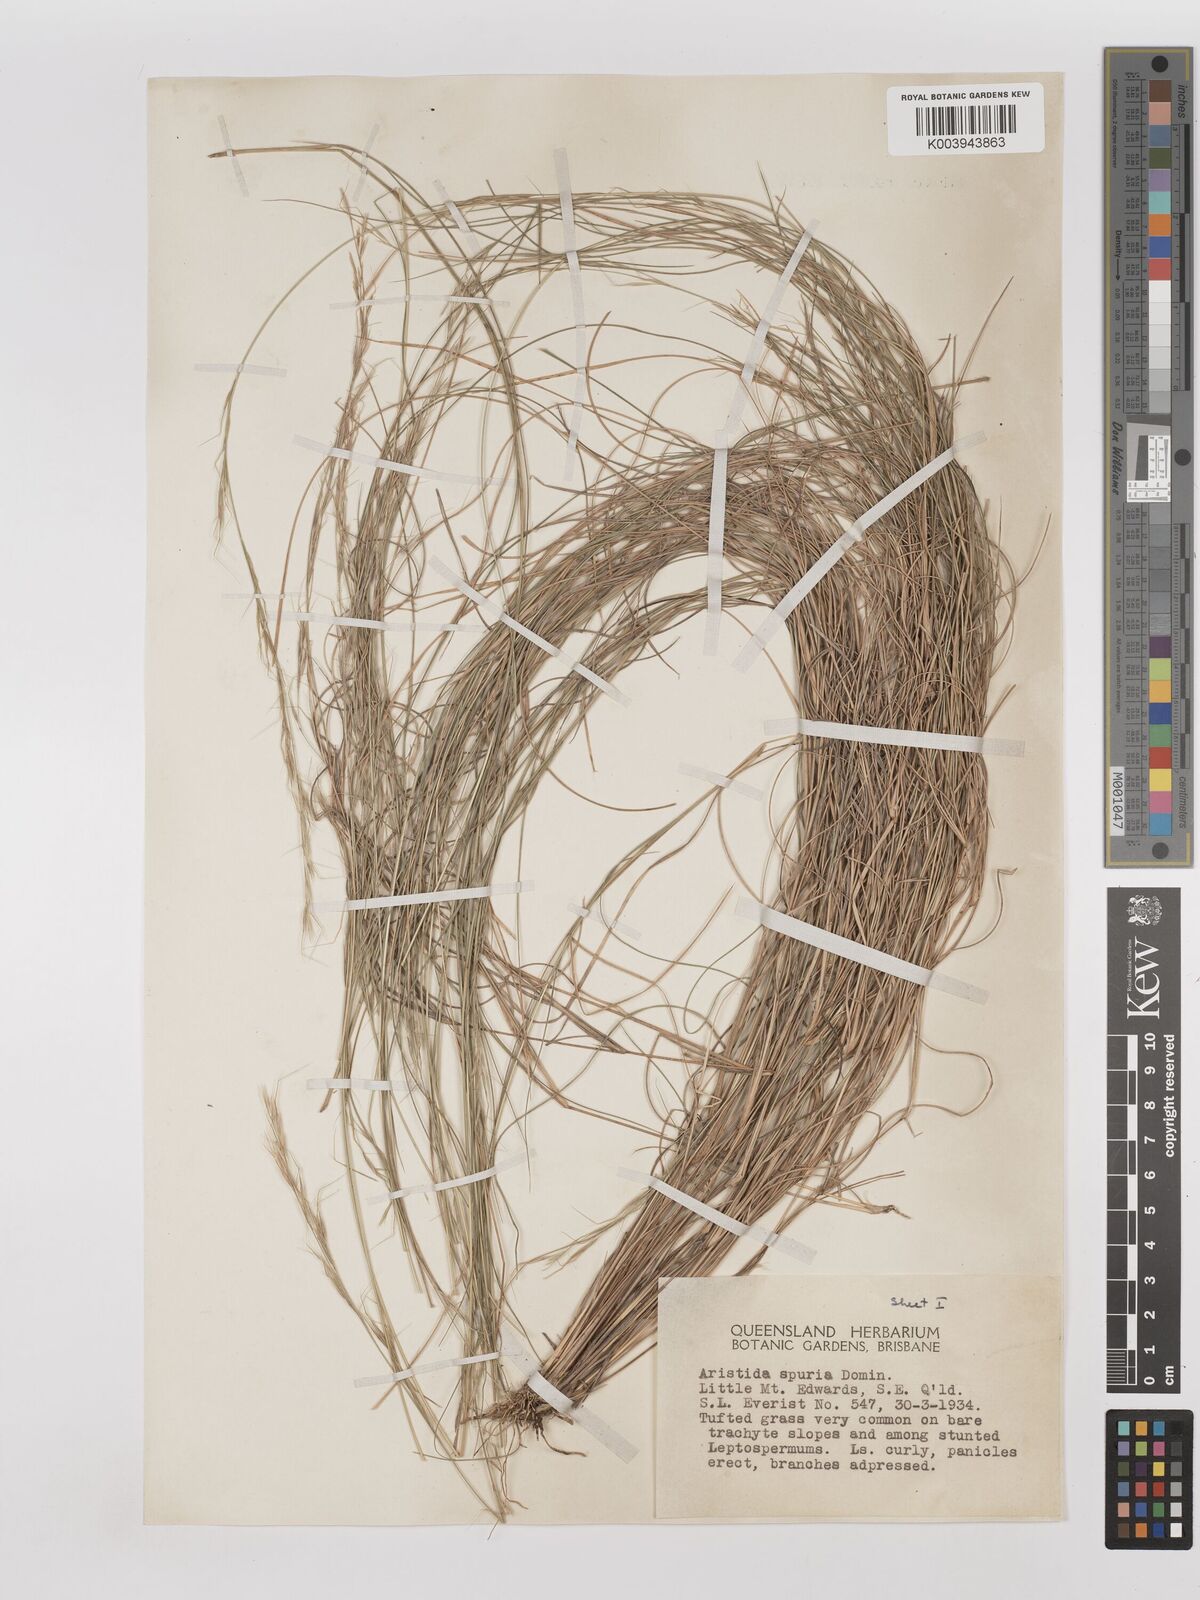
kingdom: Plantae
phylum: Tracheophyta
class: Liliopsida
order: Poales
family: Poaceae
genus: Aristida
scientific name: Aristida spuria
